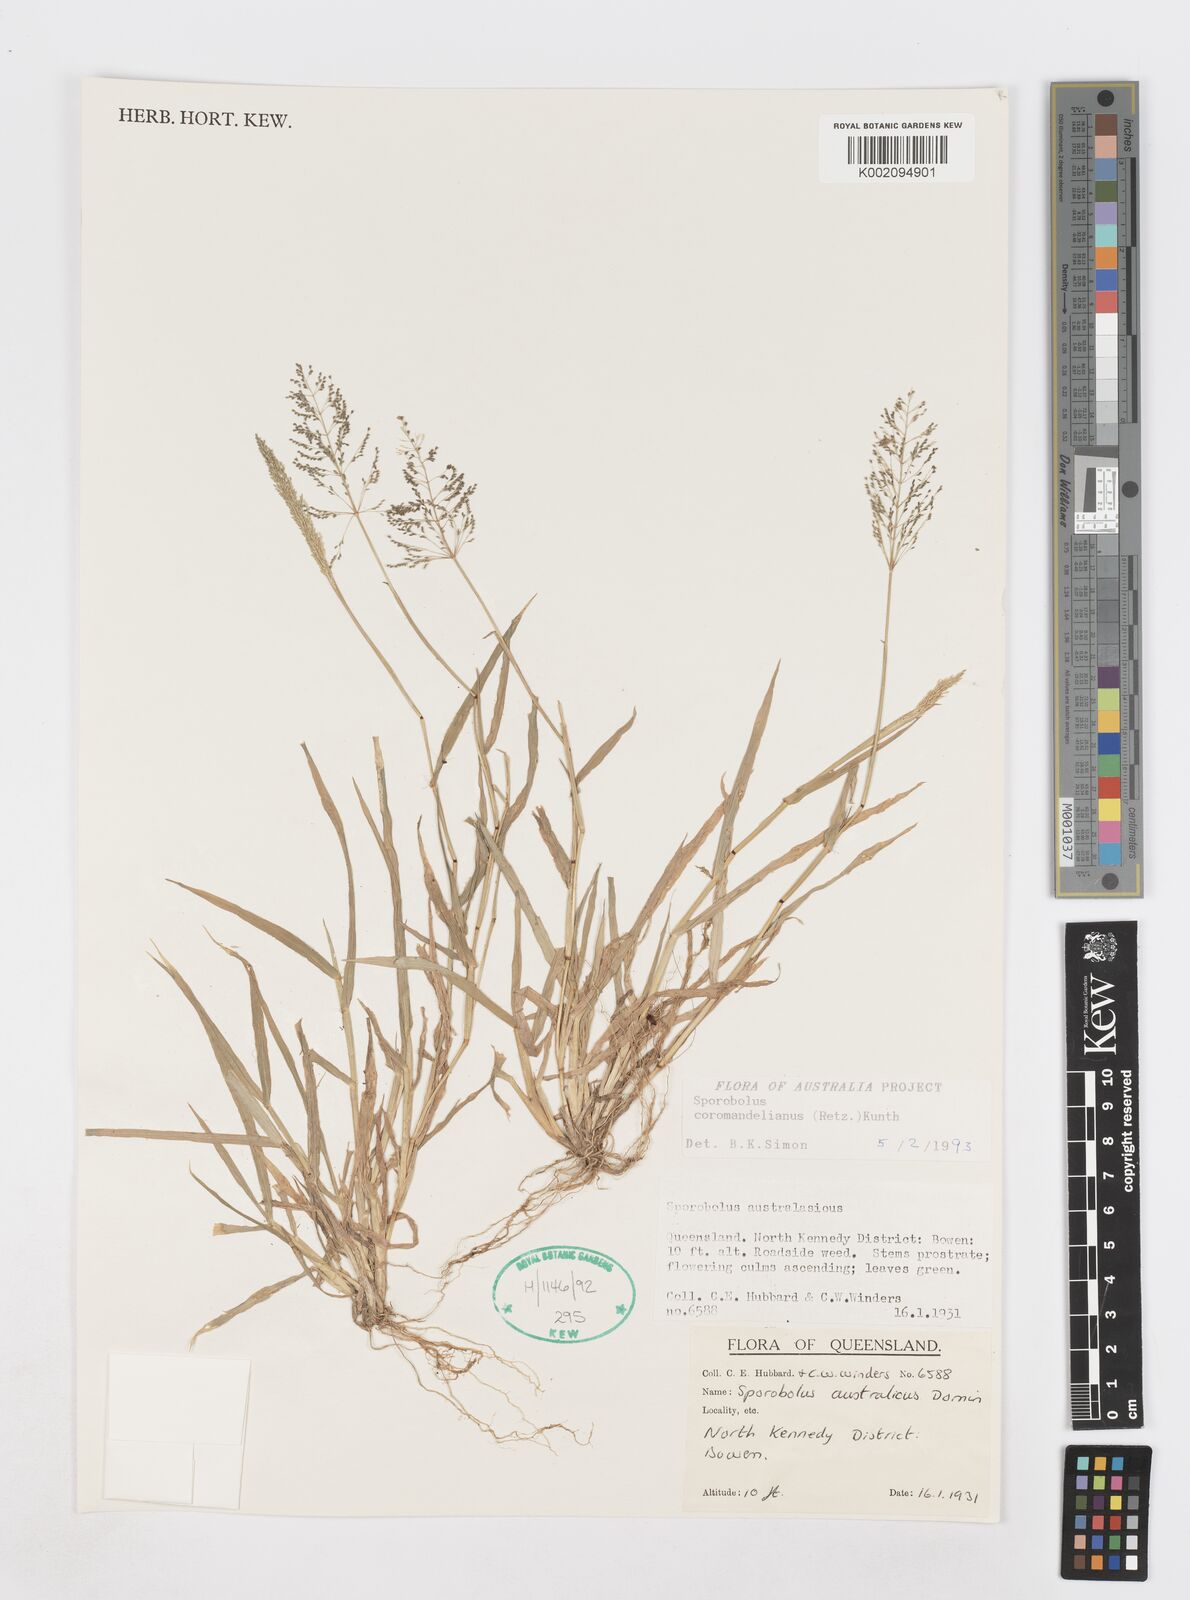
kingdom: Plantae
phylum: Tracheophyta
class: Liliopsida
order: Poales
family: Poaceae
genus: Sporobolus
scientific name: Sporobolus coromandelianus
